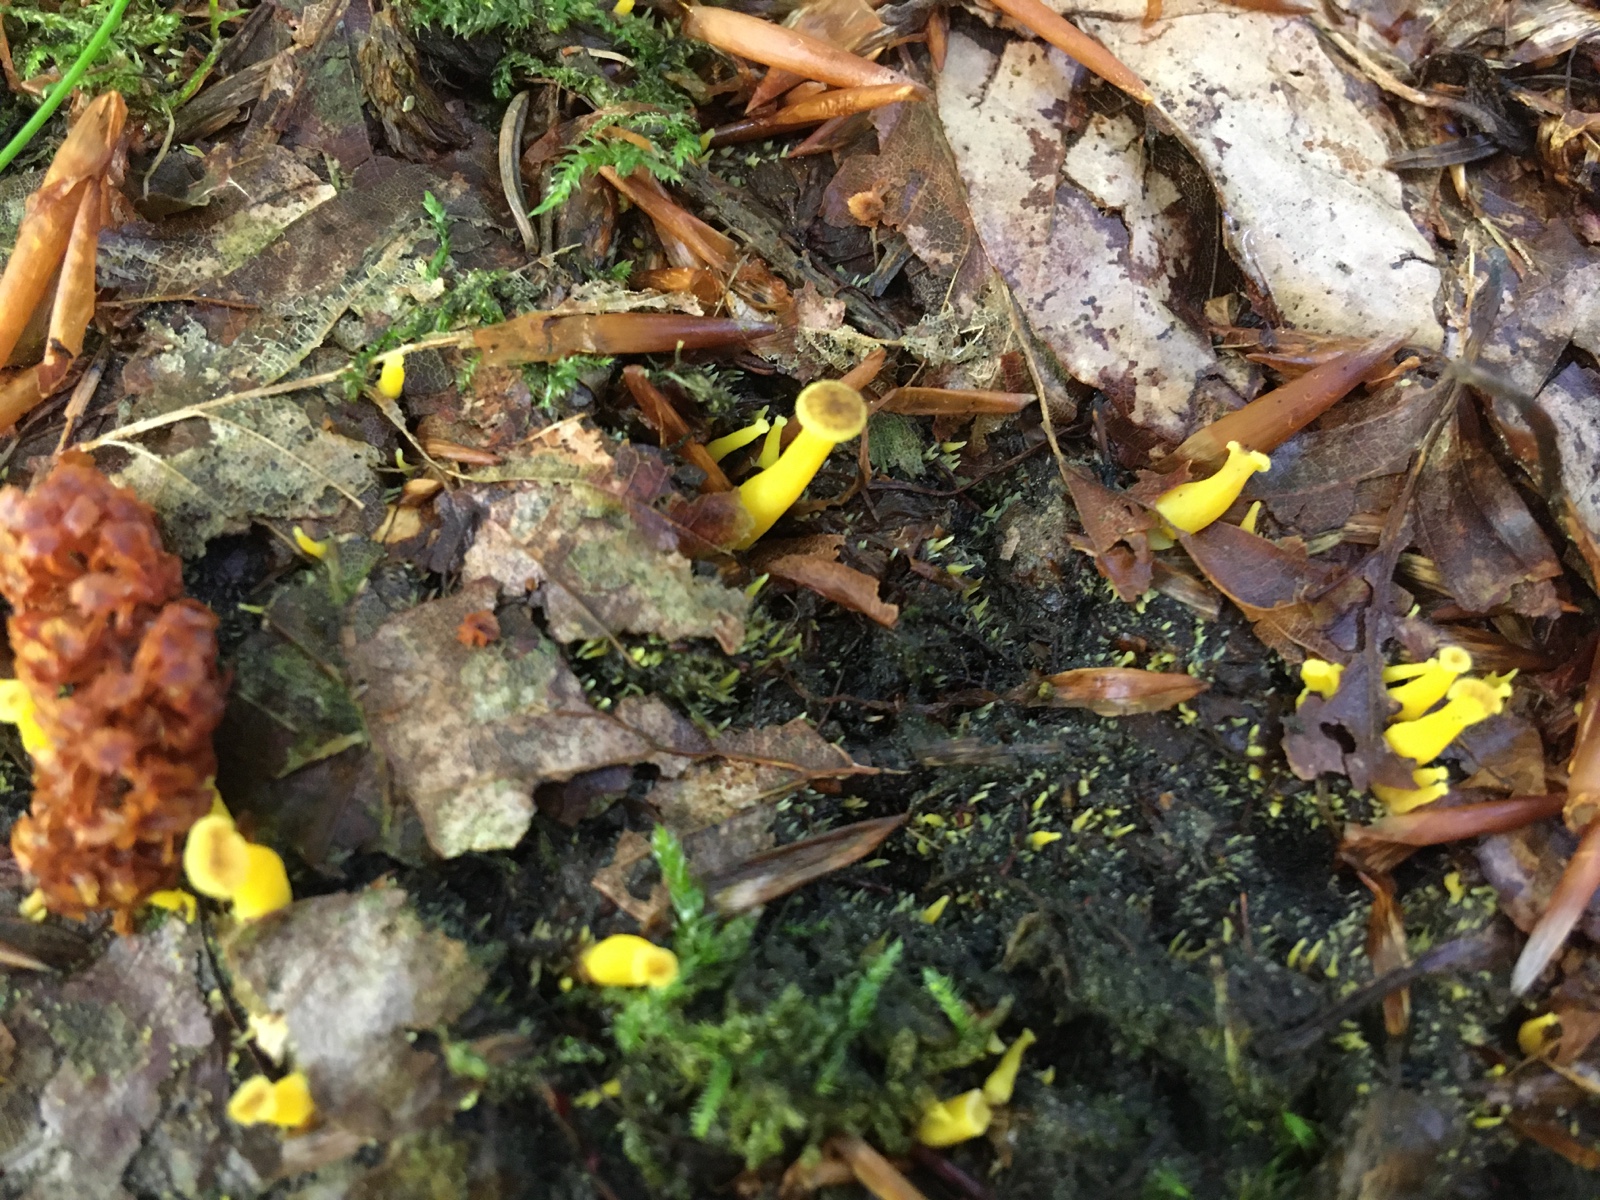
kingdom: Fungi
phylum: Basidiomycota
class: Agaricomycetes
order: Cantharellales
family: Hydnaceae
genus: Craterellus
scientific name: Craterellus tubaeformis
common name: tragt-kantarel
